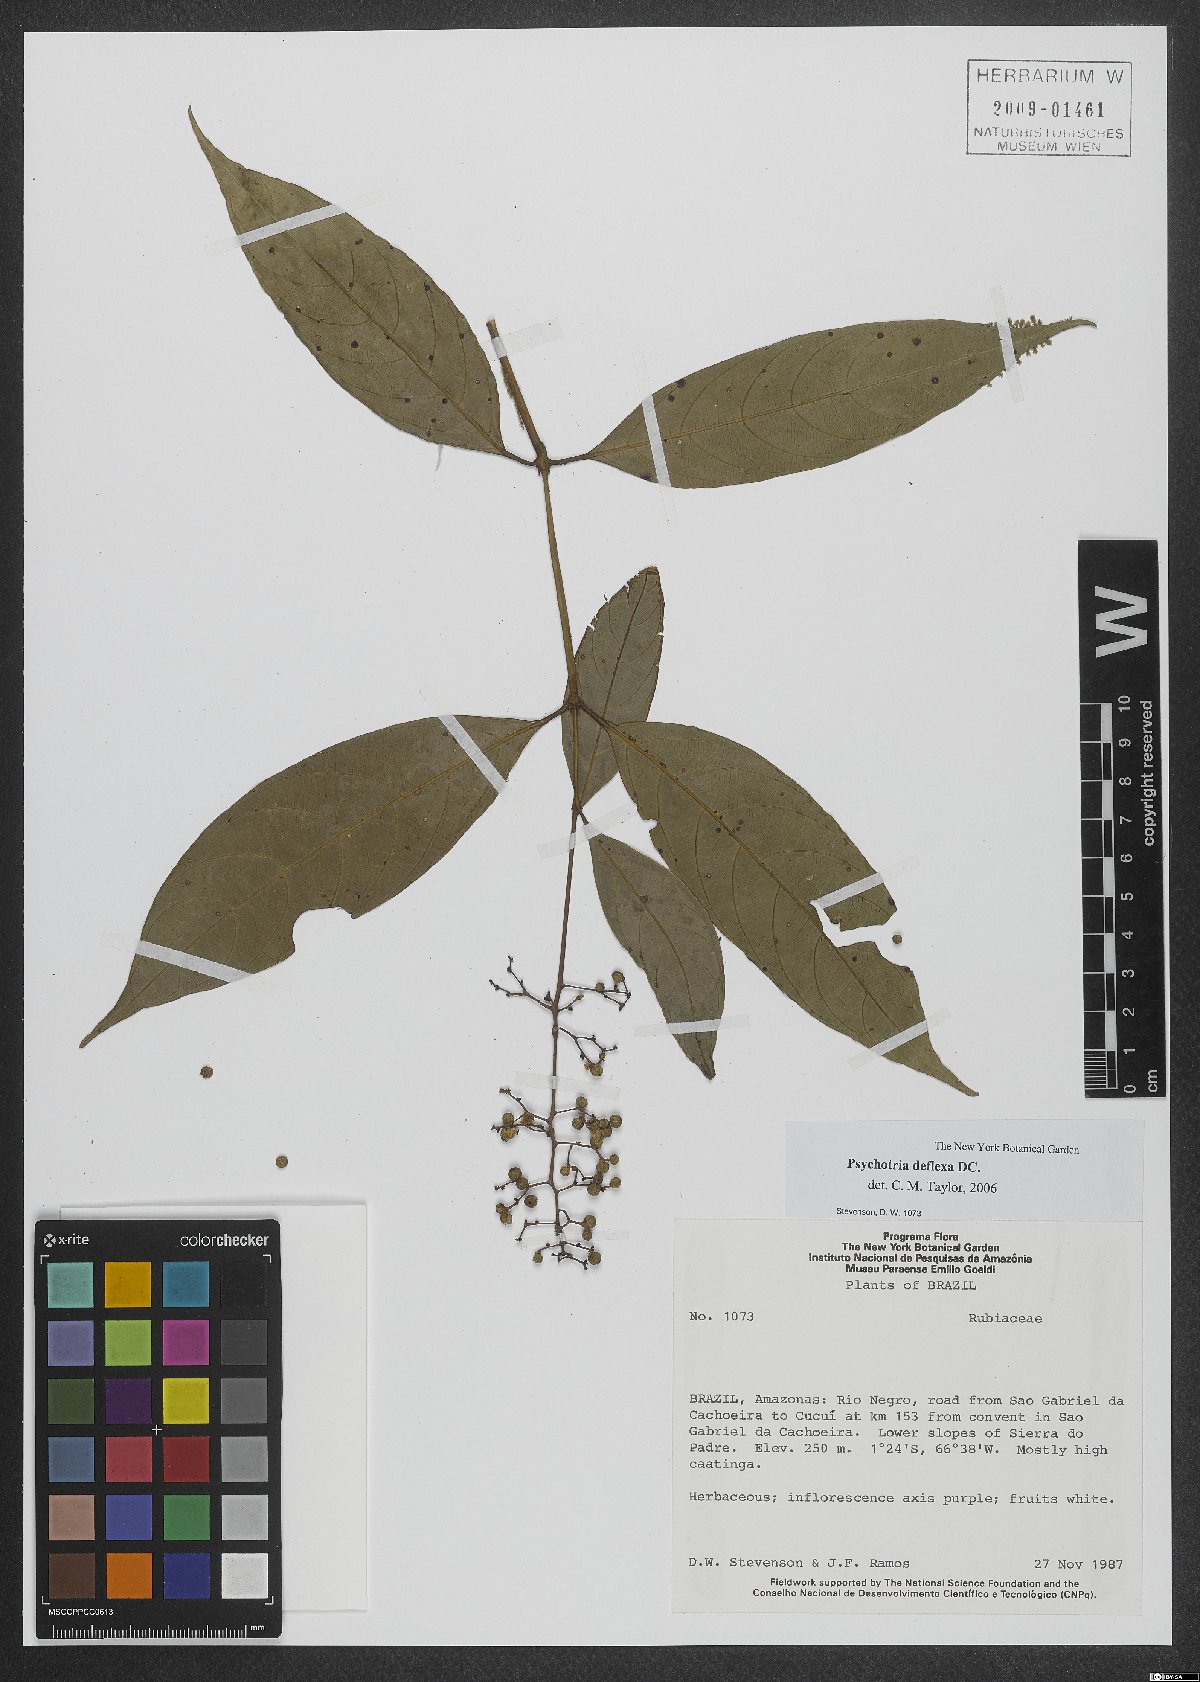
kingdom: Plantae
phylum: Tracheophyta
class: Magnoliopsida
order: Gentianales
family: Rubiaceae
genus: Palicourea
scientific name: Palicourea deflexa
